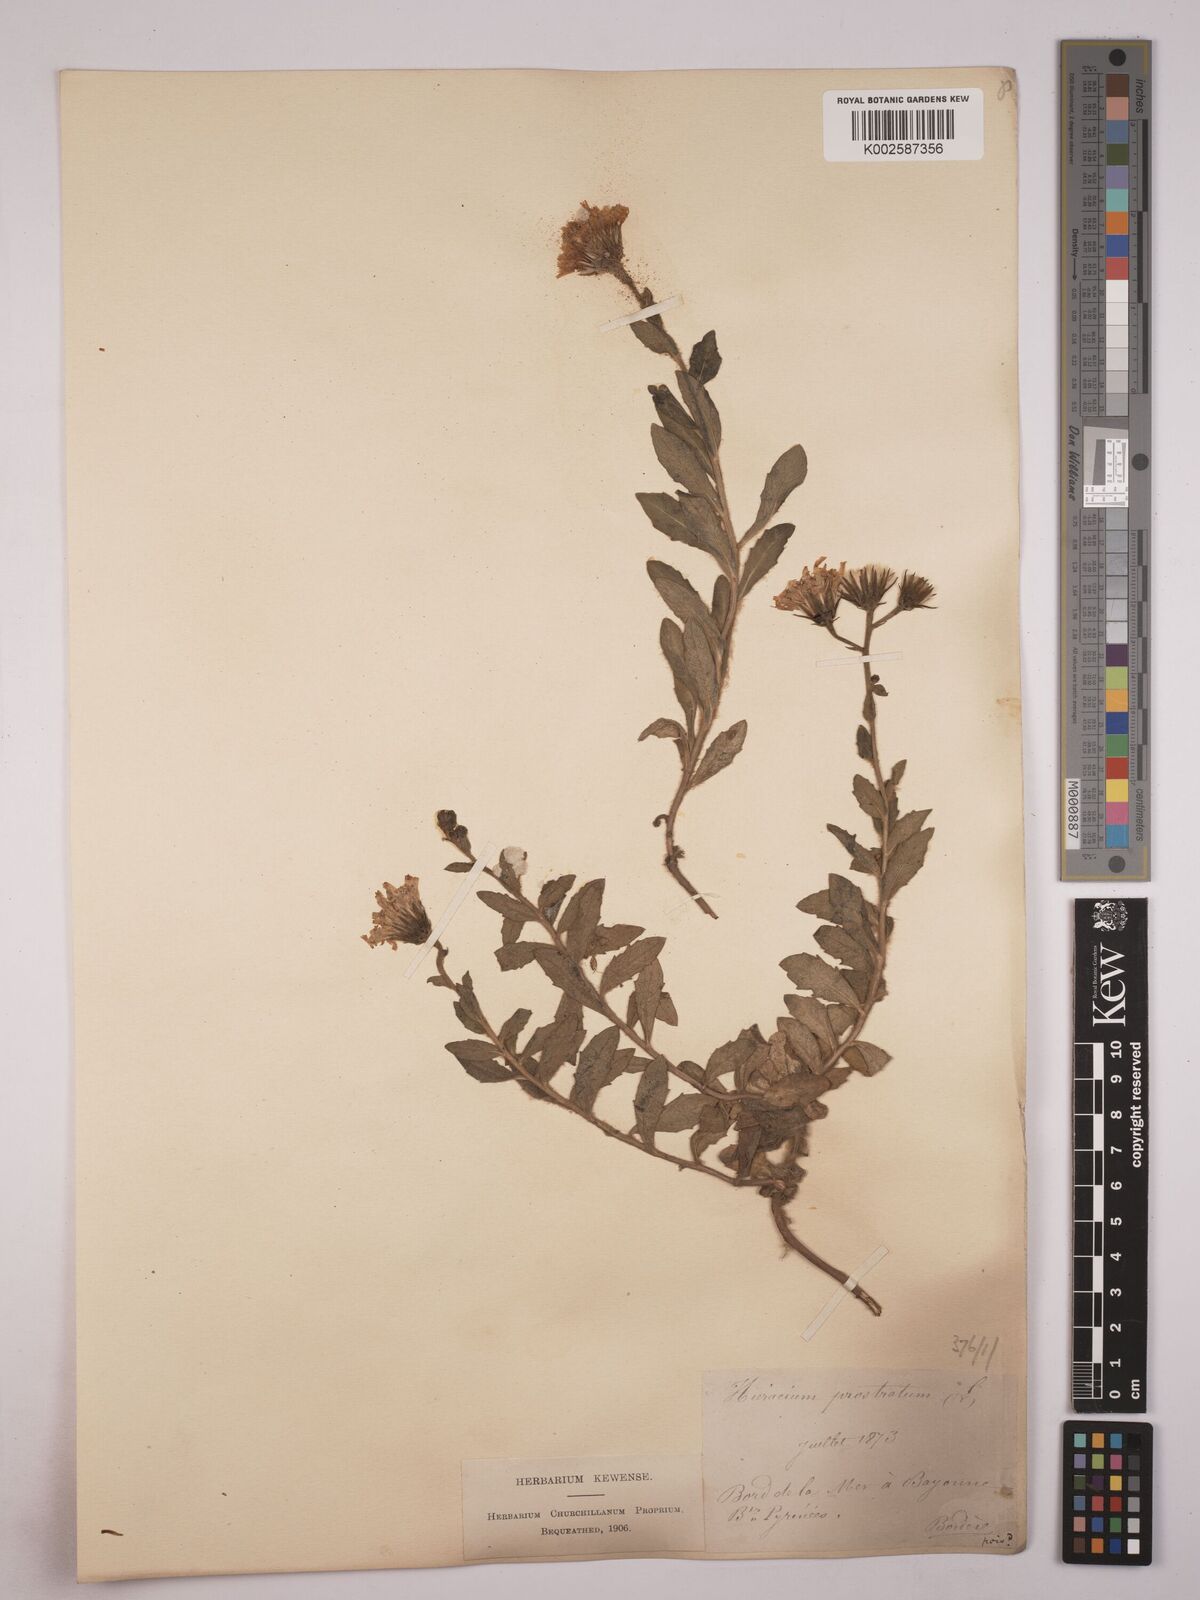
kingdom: Plantae
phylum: Tracheophyta
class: Magnoliopsida
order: Asterales
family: Asteraceae
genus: Hieracium
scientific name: Hieracium prostratum
